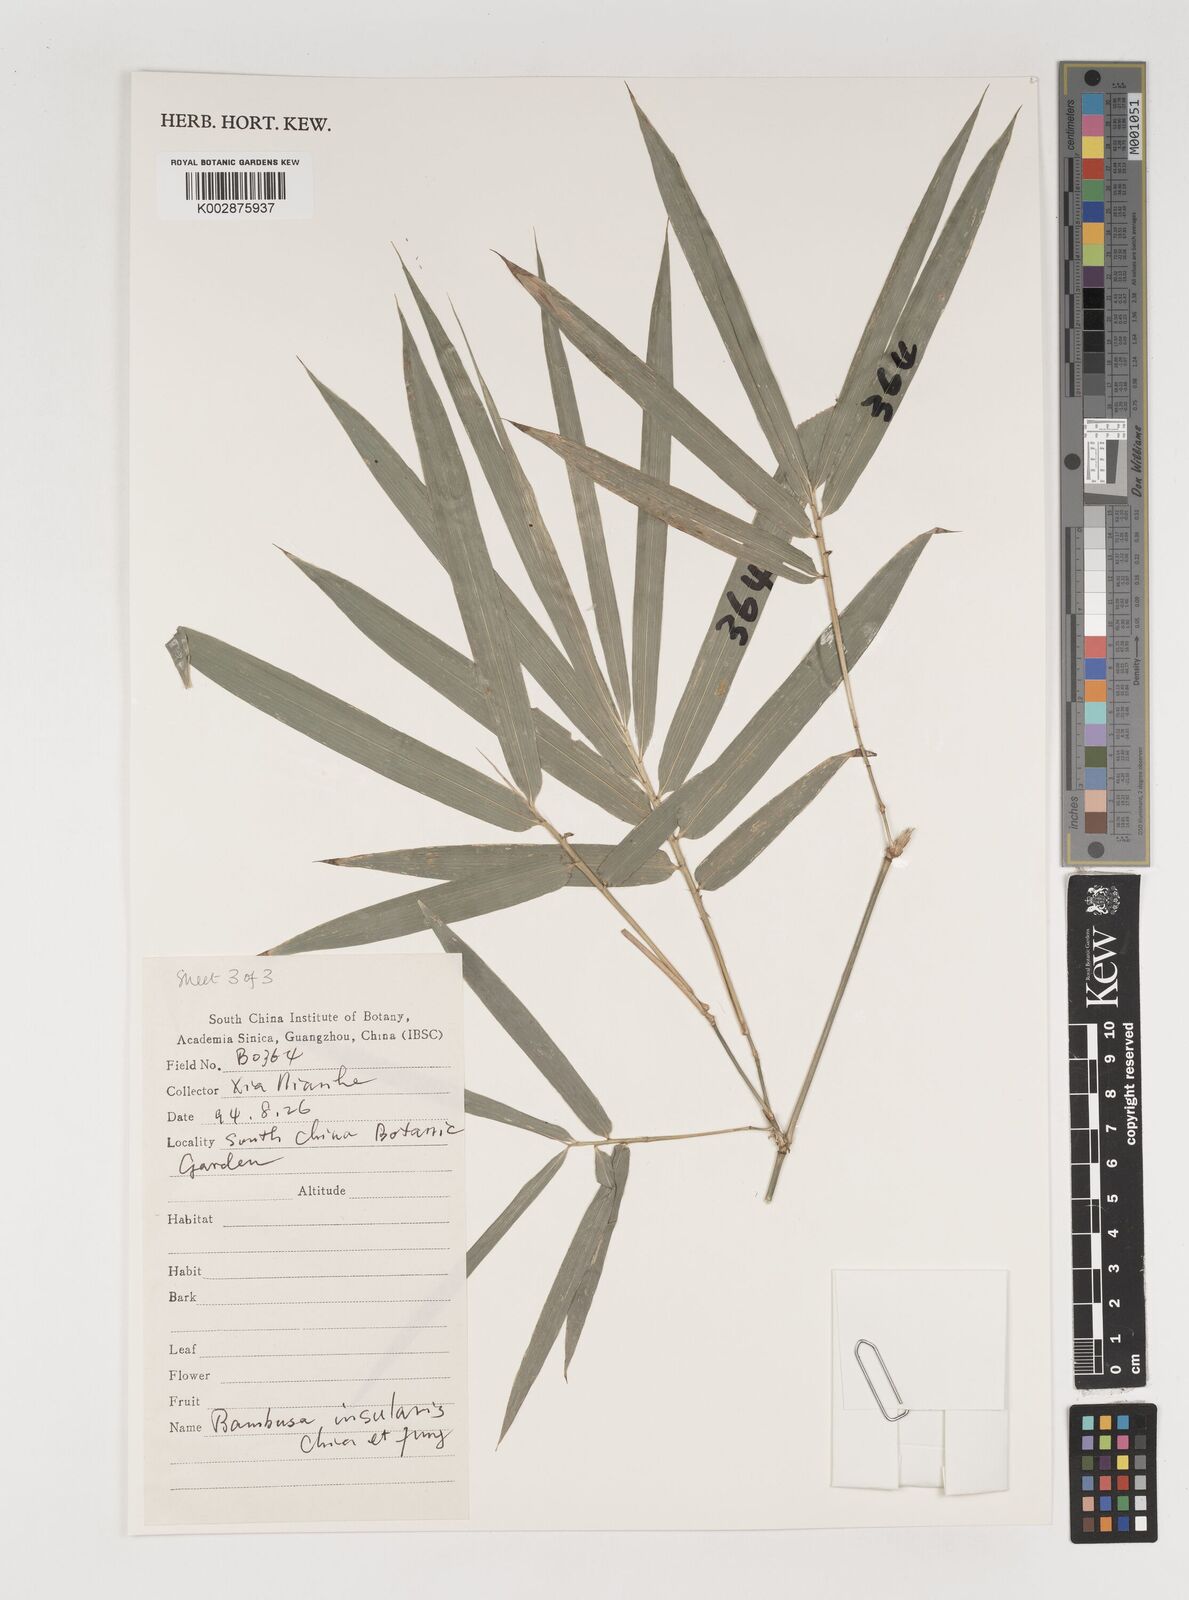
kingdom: Plantae
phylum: Tracheophyta
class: Liliopsida
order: Poales
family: Poaceae
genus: Bambusa
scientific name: Bambusa insularis
